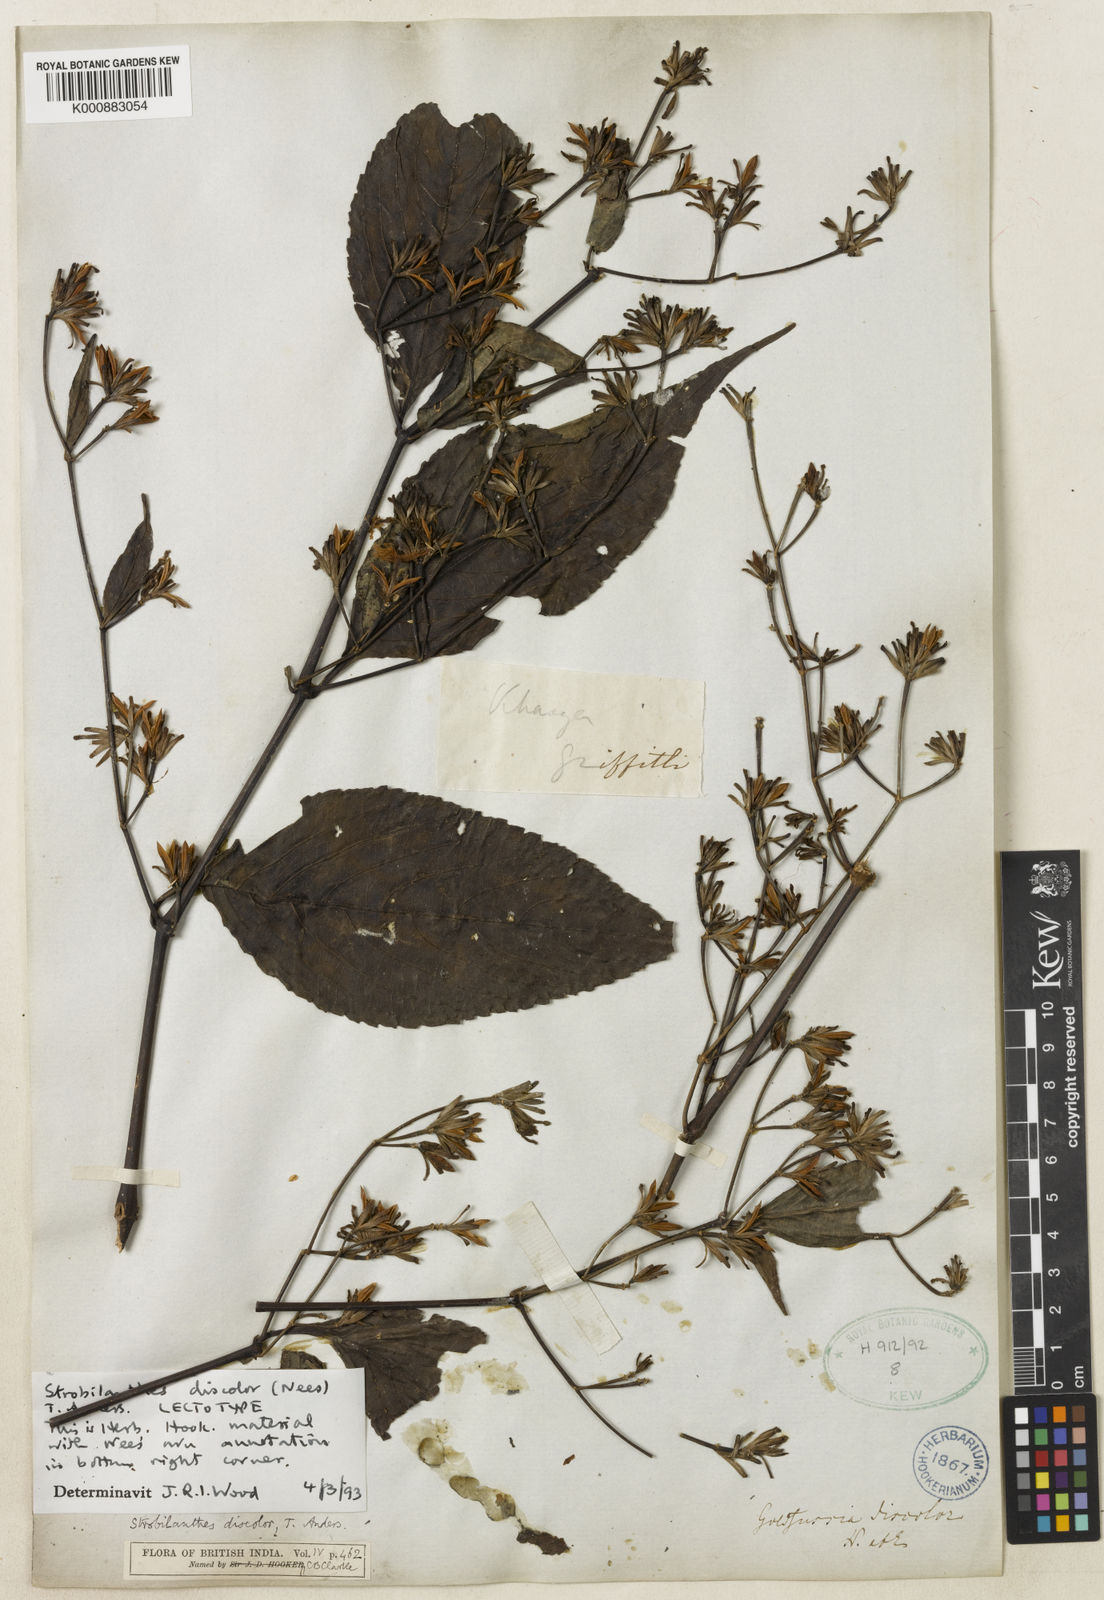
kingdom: Plantae
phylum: Tracheophyta
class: Magnoliopsida
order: Lamiales
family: Acanthaceae
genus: Strobilanthes
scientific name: Strobilanthes discolor
